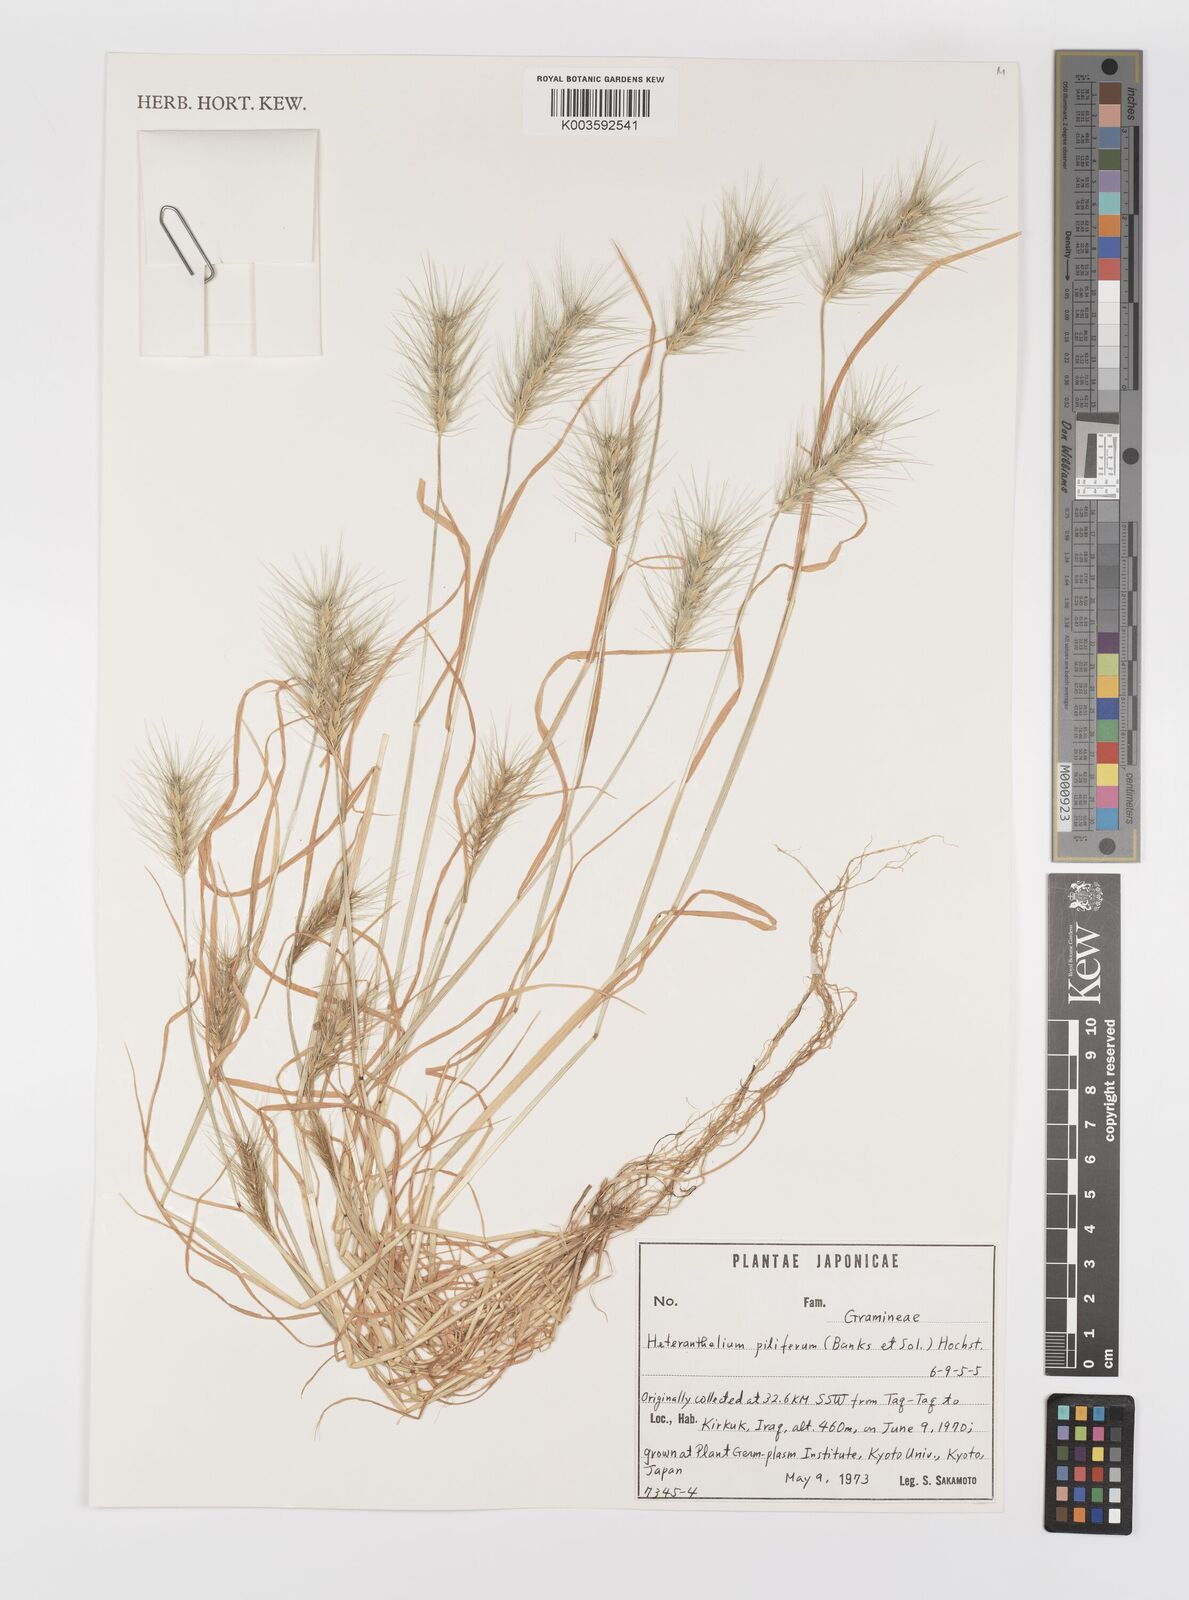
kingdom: Plantae
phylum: Tracheophyta
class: Liliopsida
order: Poales
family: Poaceae
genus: Heteranthelium
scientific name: Heteranthelium piliferum
